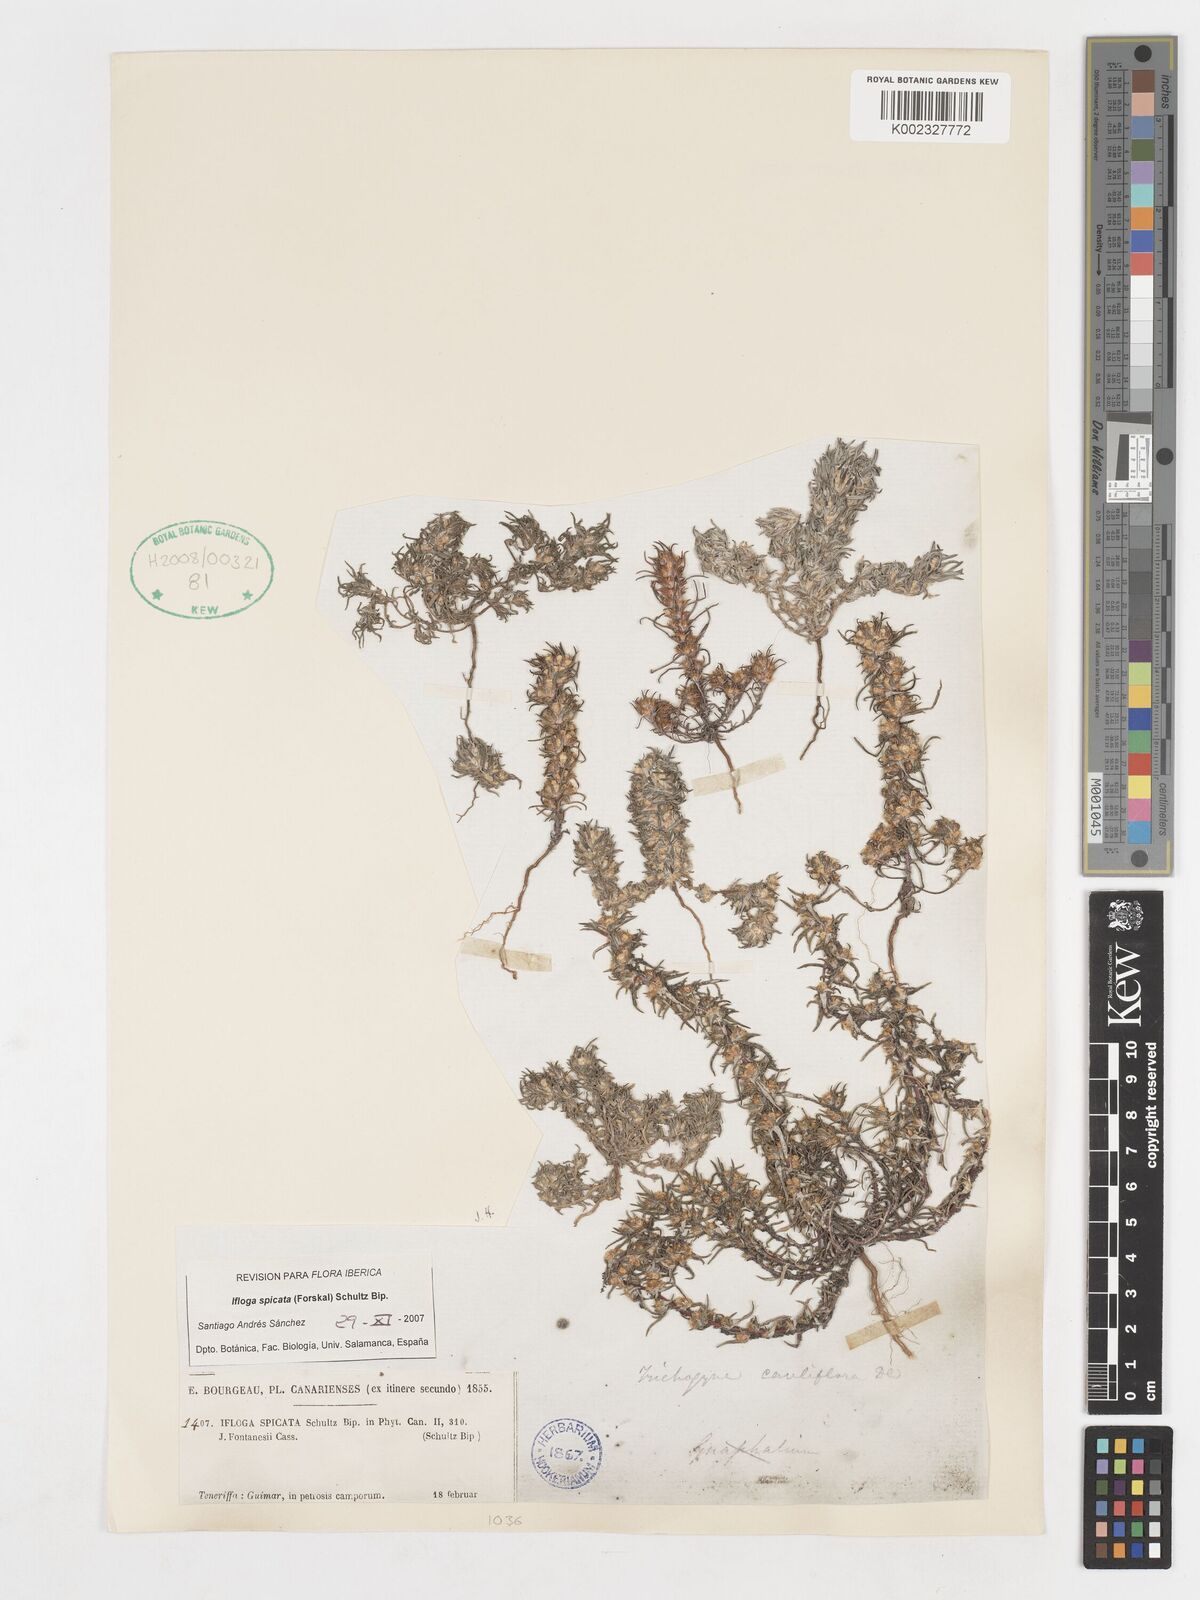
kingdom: Plantae
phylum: Tracheophyta
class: Magnoliopsida
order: Asterales
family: Asteraceae
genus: Ifloga
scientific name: Ifloga spicata
